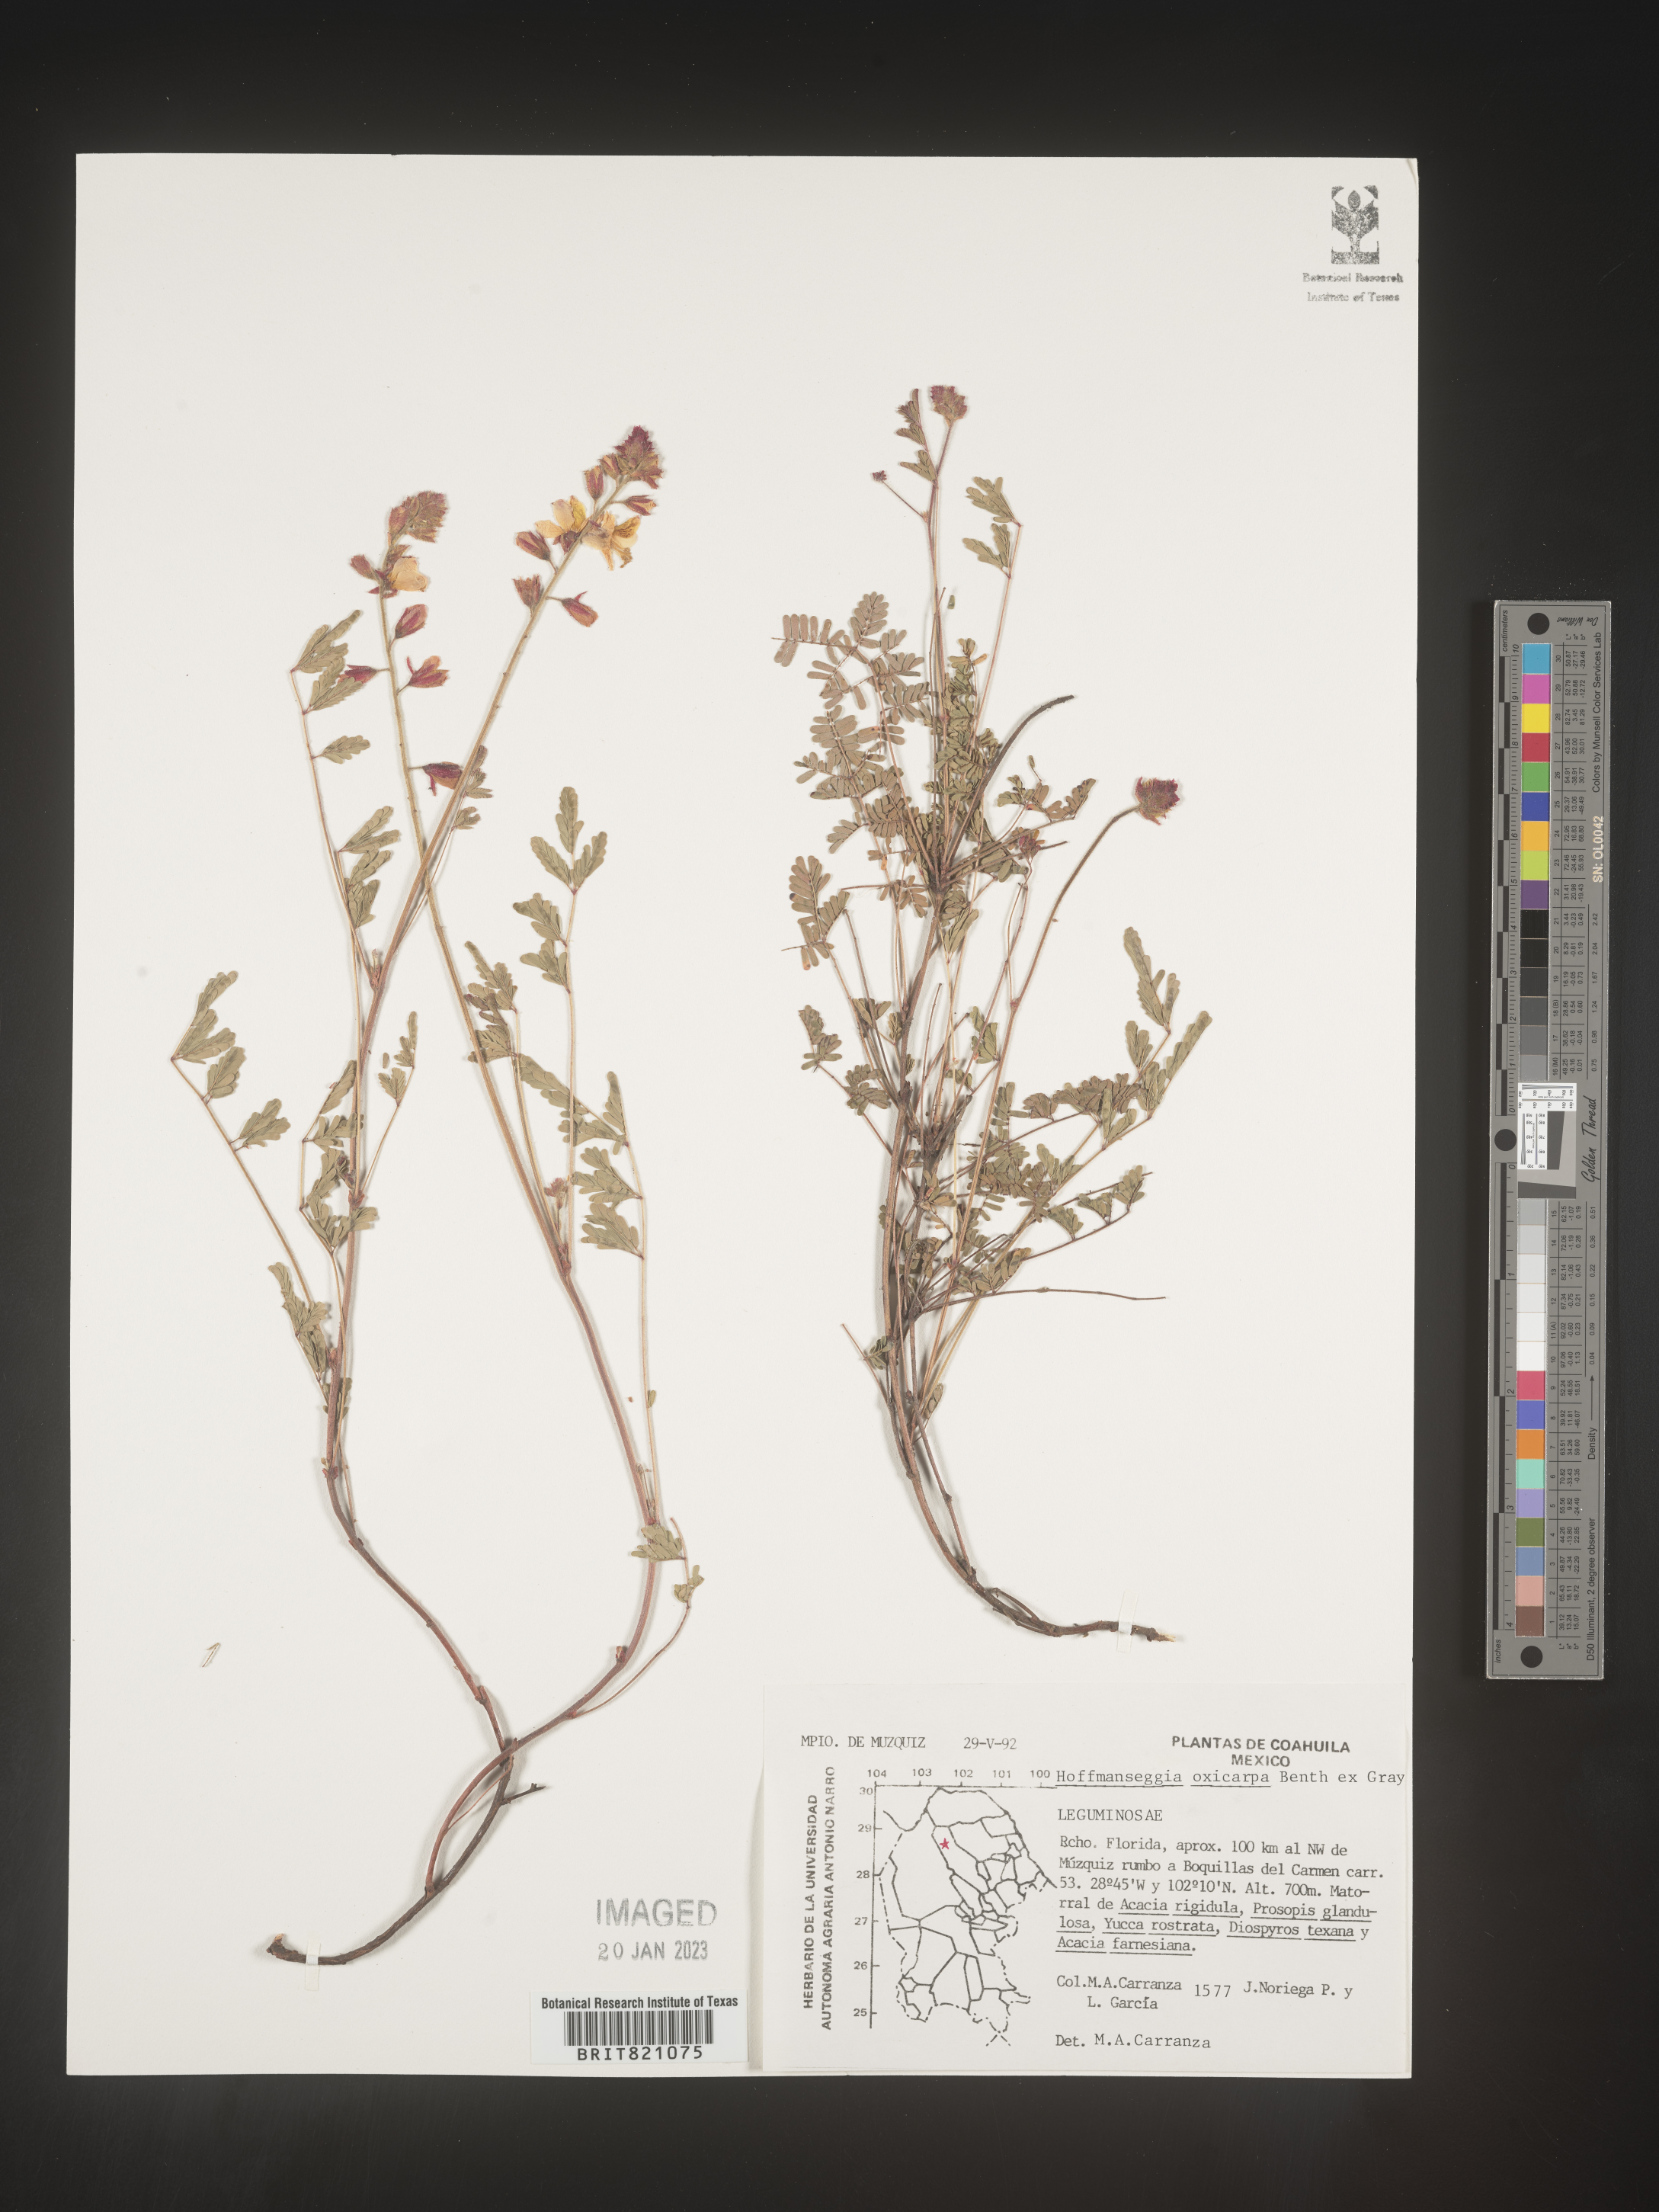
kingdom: Plantae
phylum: Tracheophyta
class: Magnoliopsida
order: Fabales
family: Fabaceae
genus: Hoffmannseggia
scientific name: Hoffmannseggia
